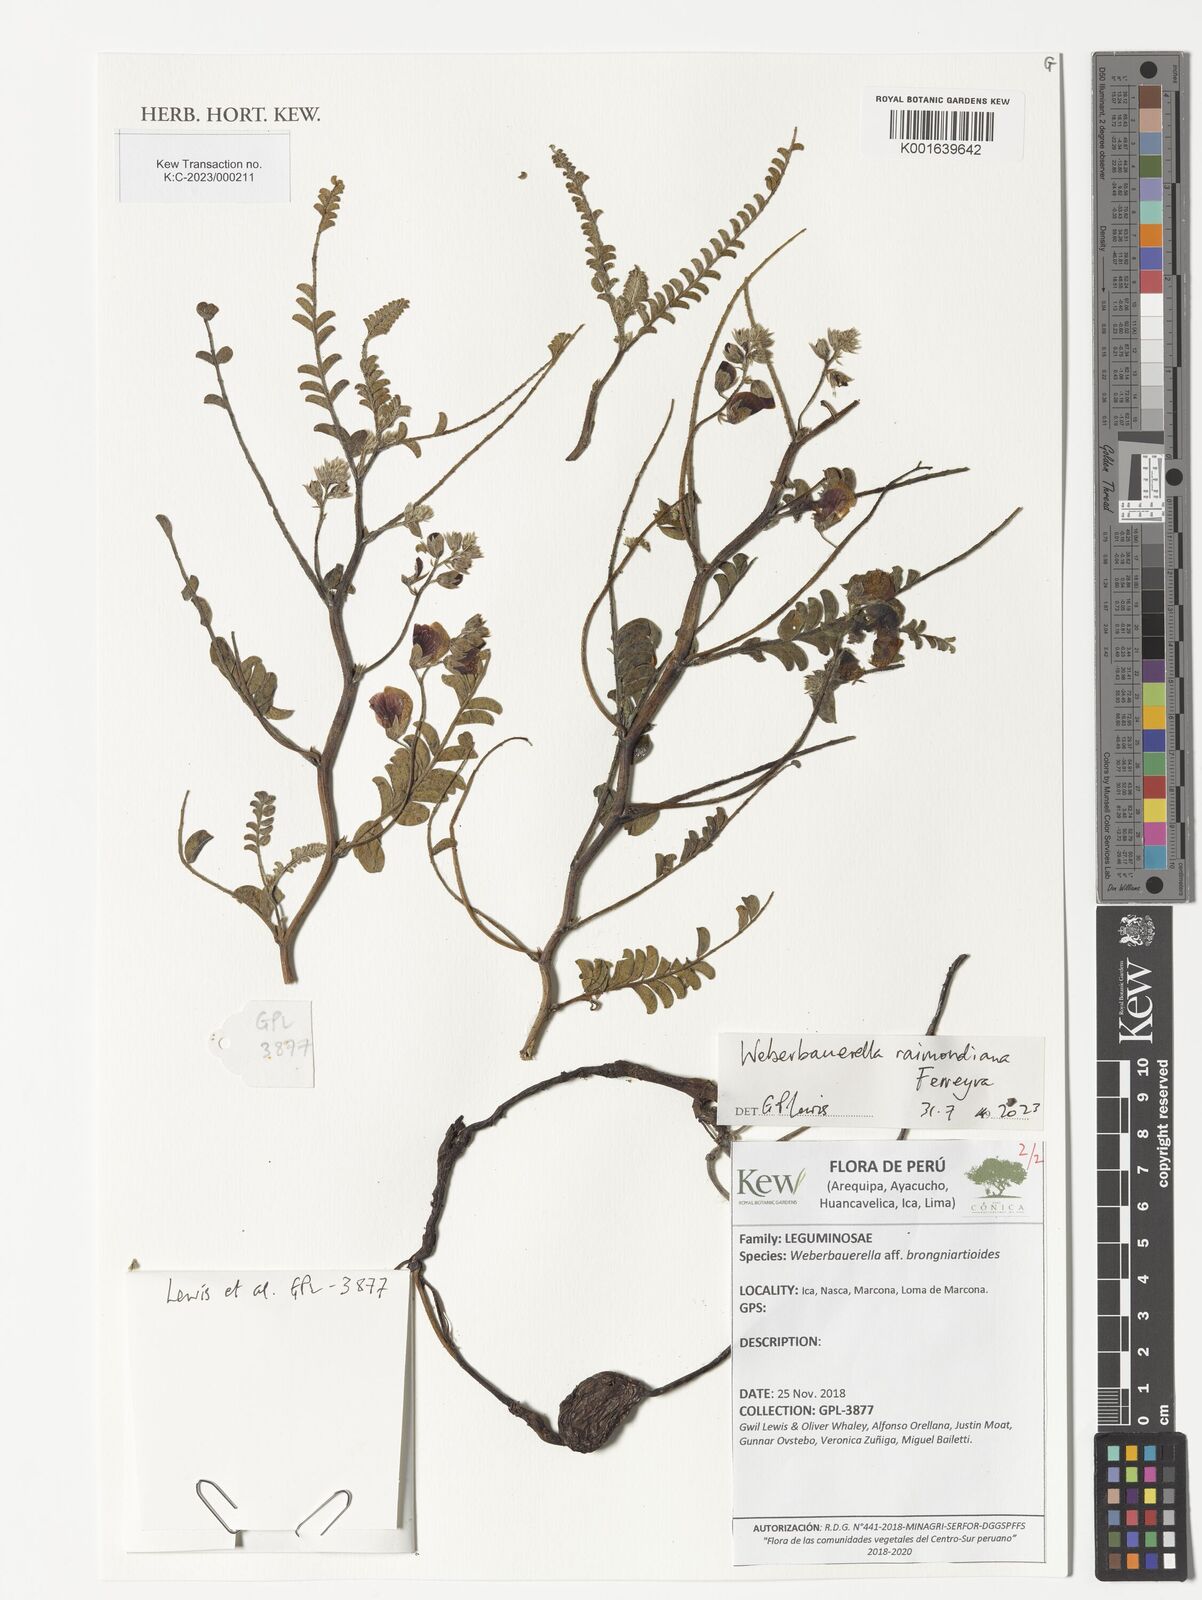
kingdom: Plantae
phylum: Tracheophyta
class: Magnoliopsida
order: Fabales
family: Fabaceae
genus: Weberbauerella
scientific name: Weberbauerella raimondiana
